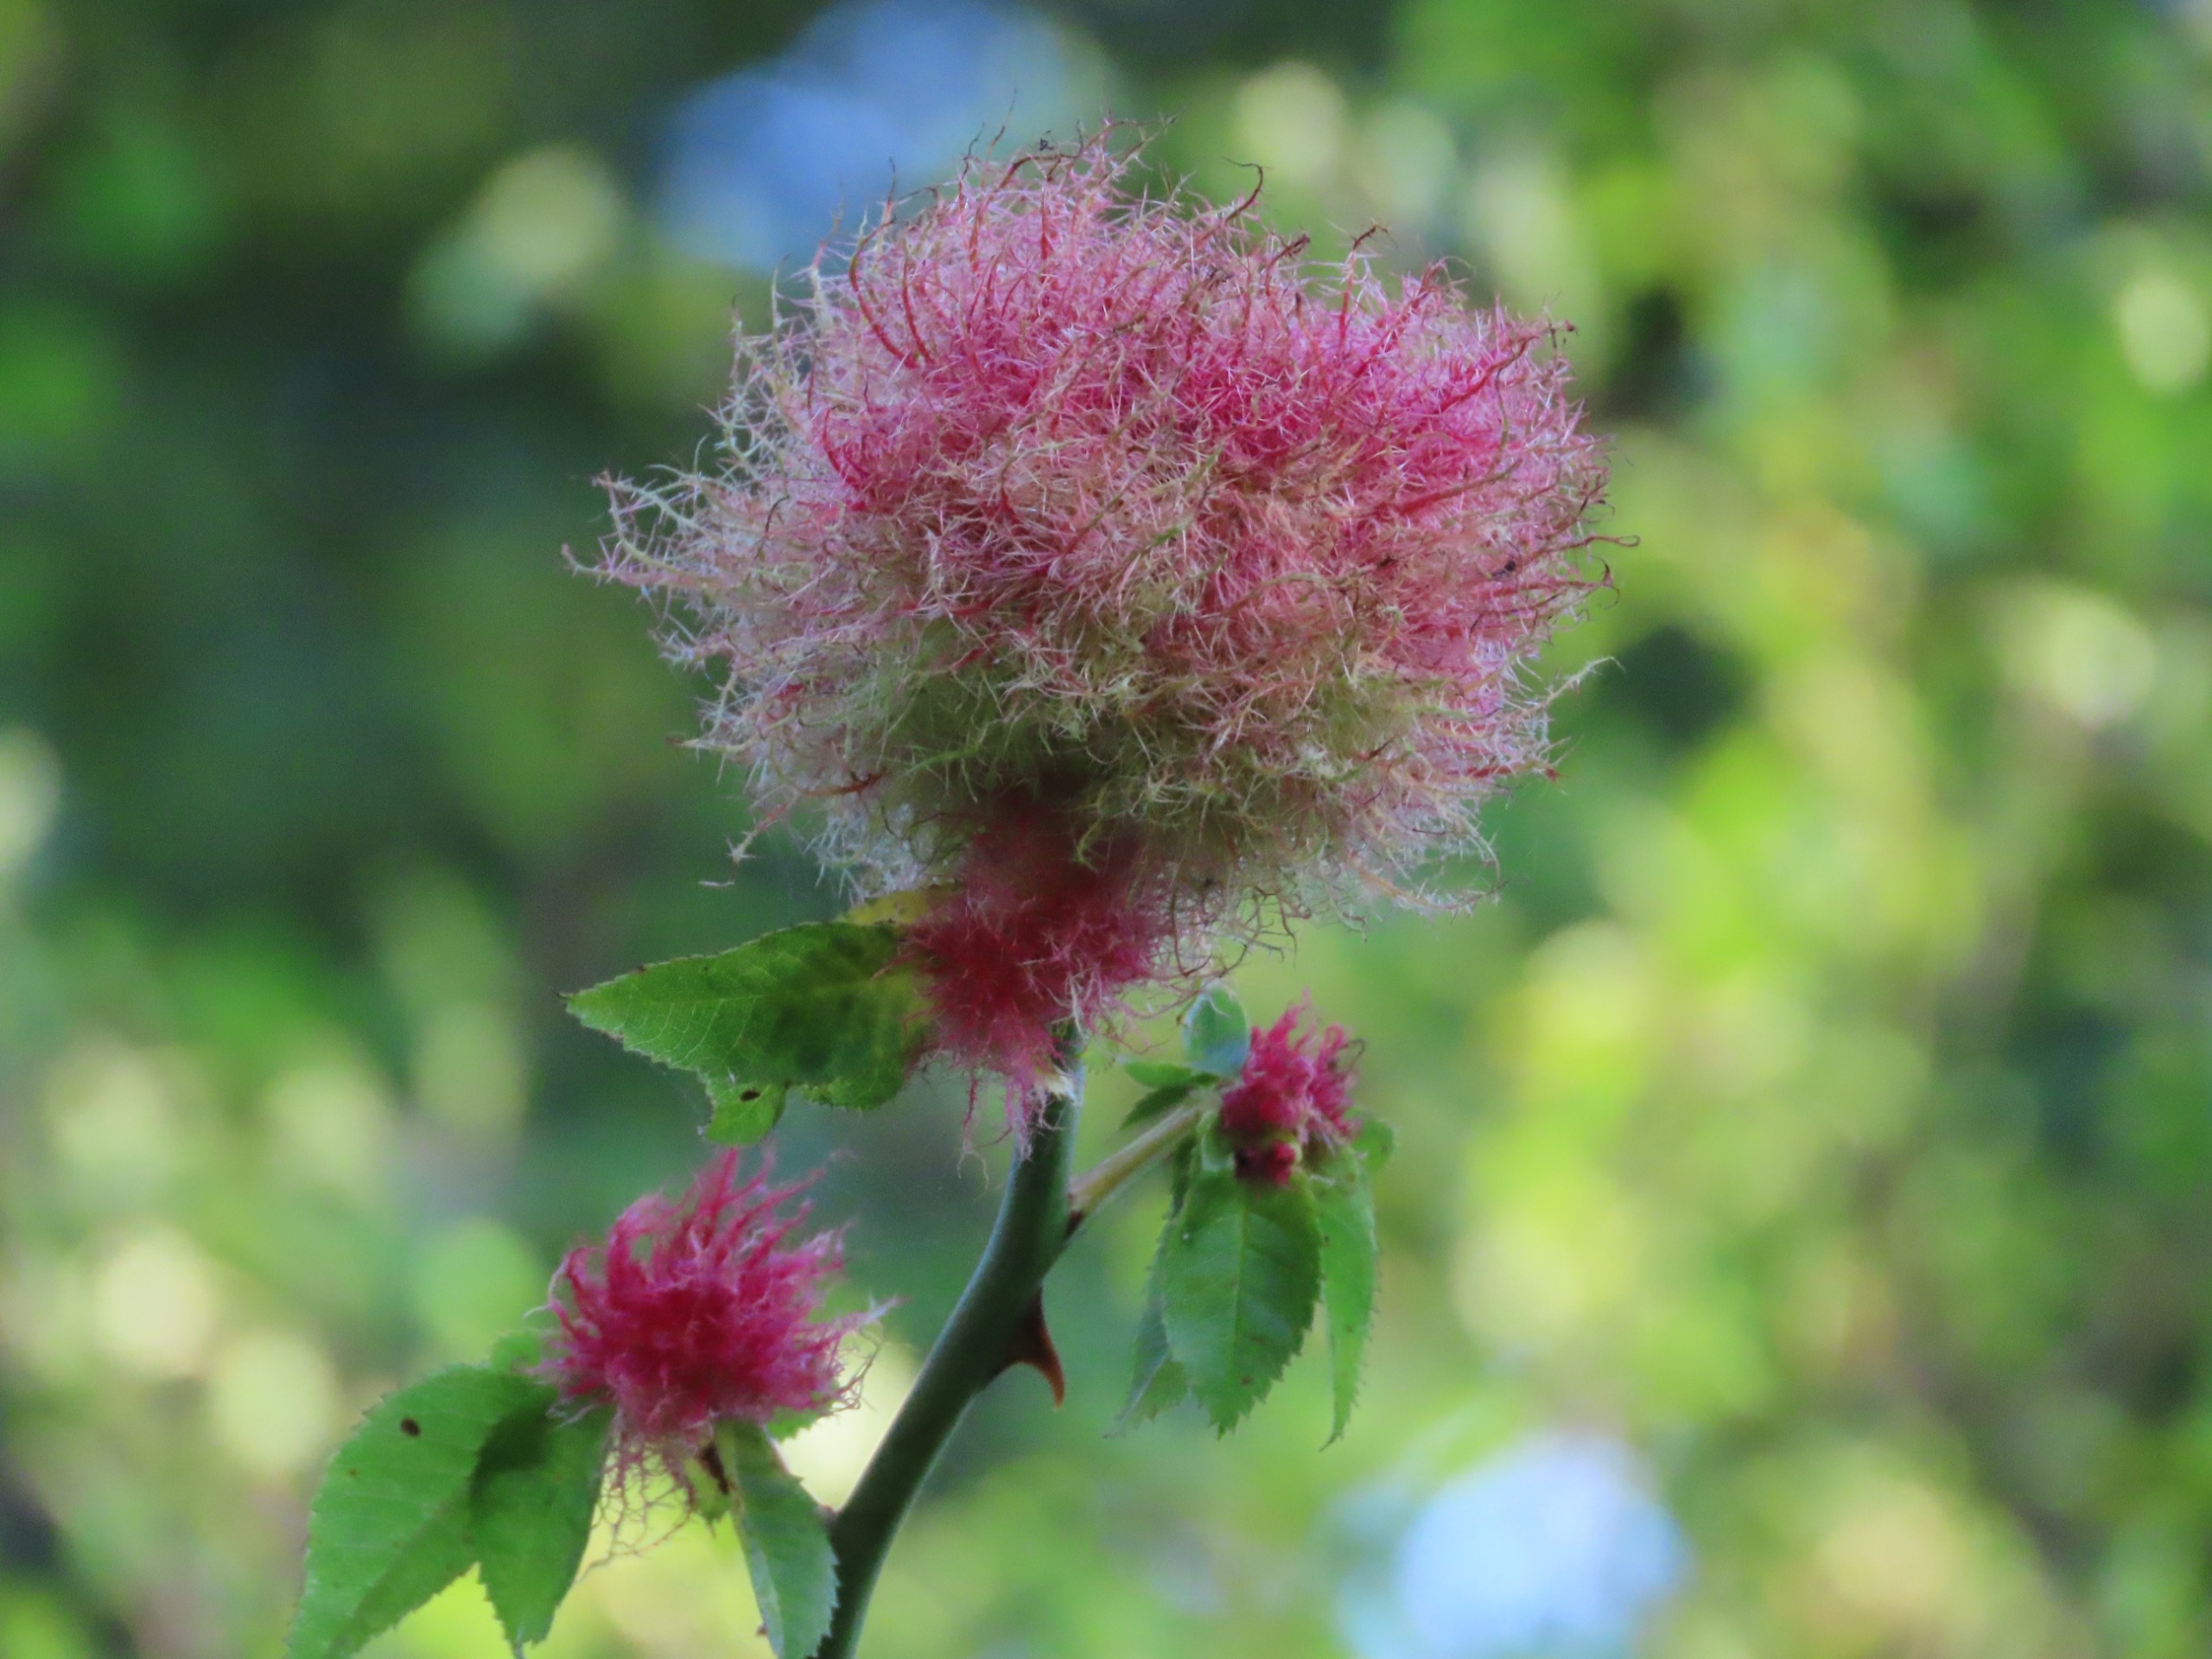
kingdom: Animalia
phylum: Arthropoda
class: Insecta
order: Hymenoptera
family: Cynipidae
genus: Diplolepis
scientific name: Diplolepis rosae
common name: Bedeguargalhveps
